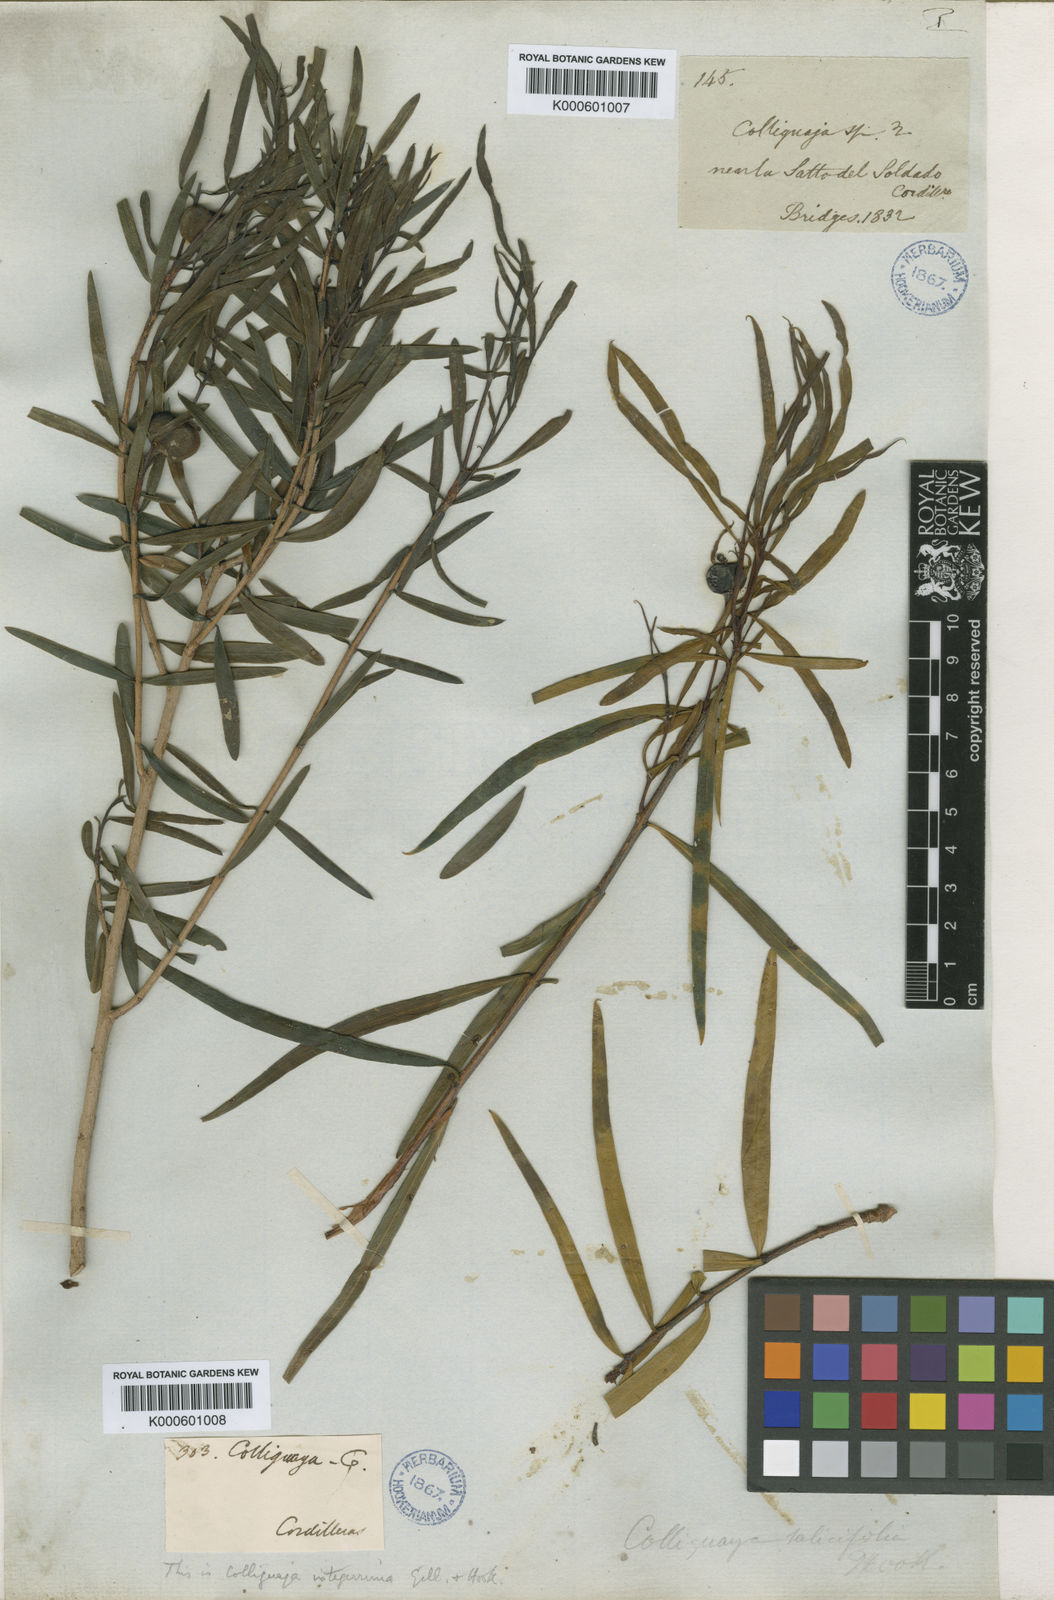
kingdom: Plantae
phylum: Tracheophyta
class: Magnoliopsida
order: Malpighiales
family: Euphorbiaceae
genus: Colliguaja
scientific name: Colliguaja integerrima
